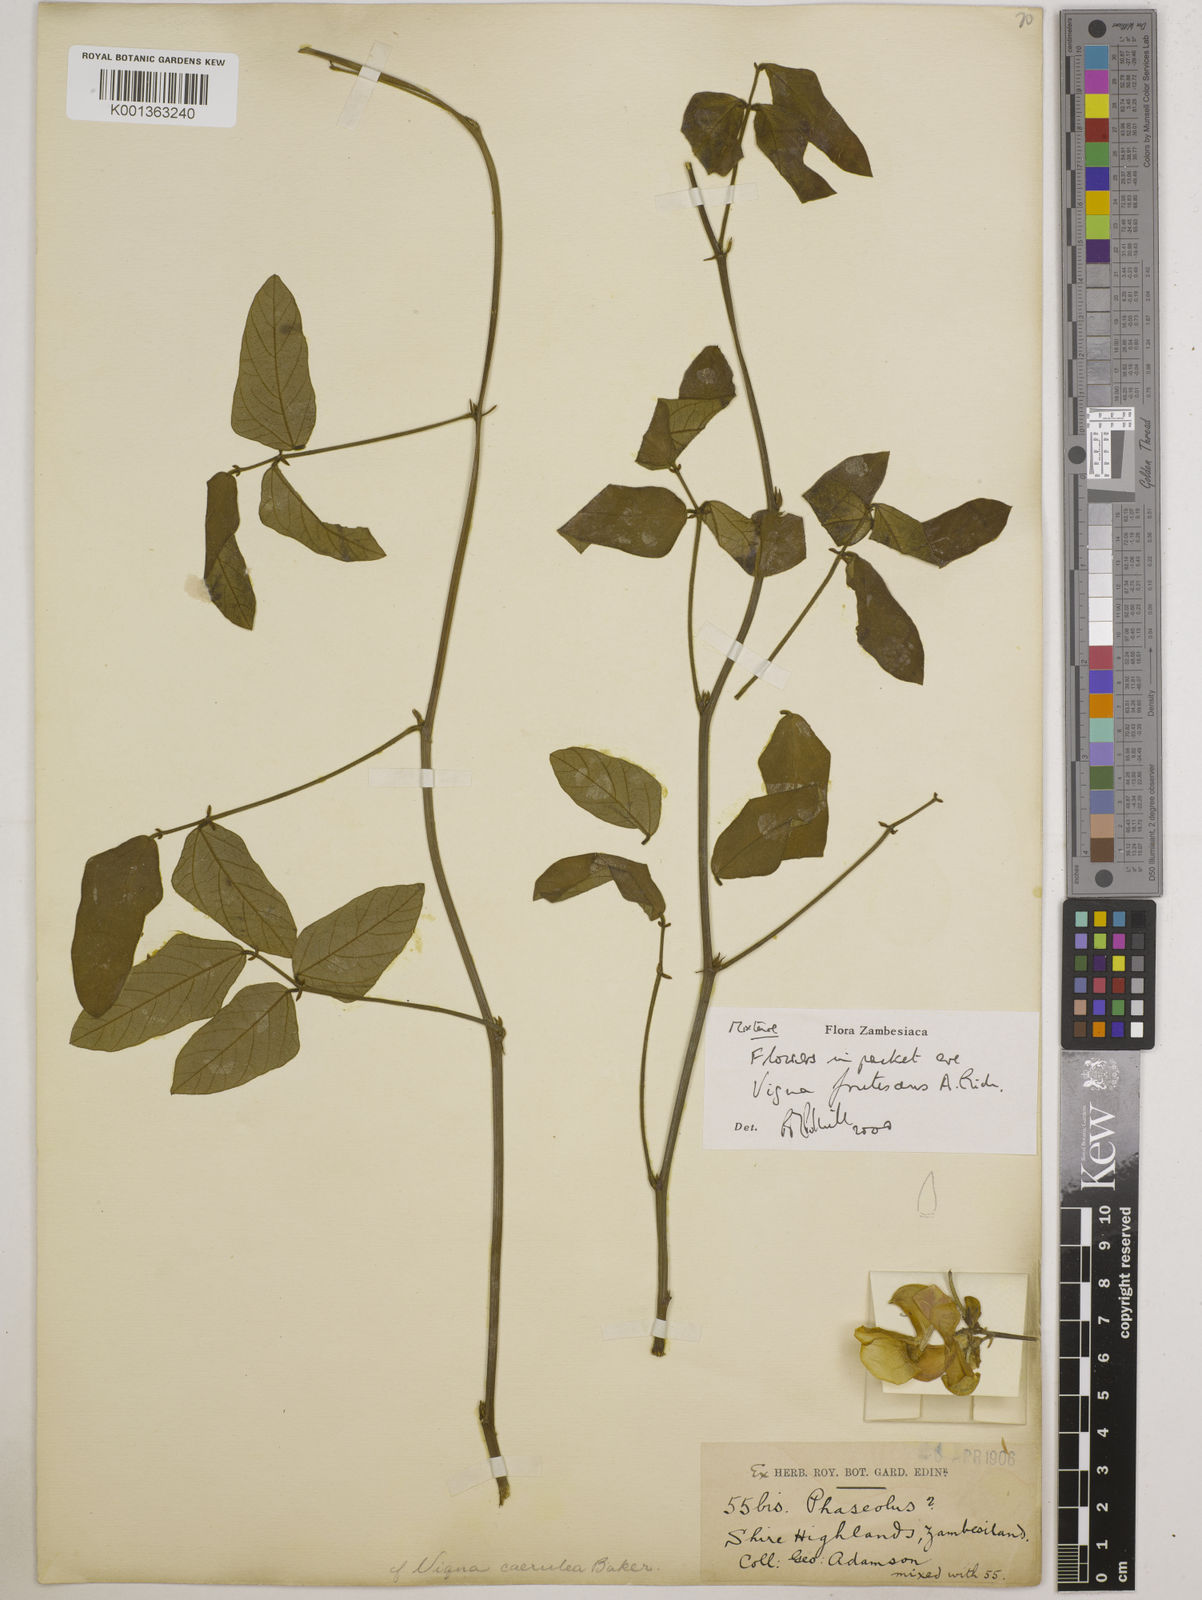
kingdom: Plantae
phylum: Tracheophyta
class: Magnoliopsida
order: Fabales
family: Fabaceae
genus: Vigna
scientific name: Vigna
